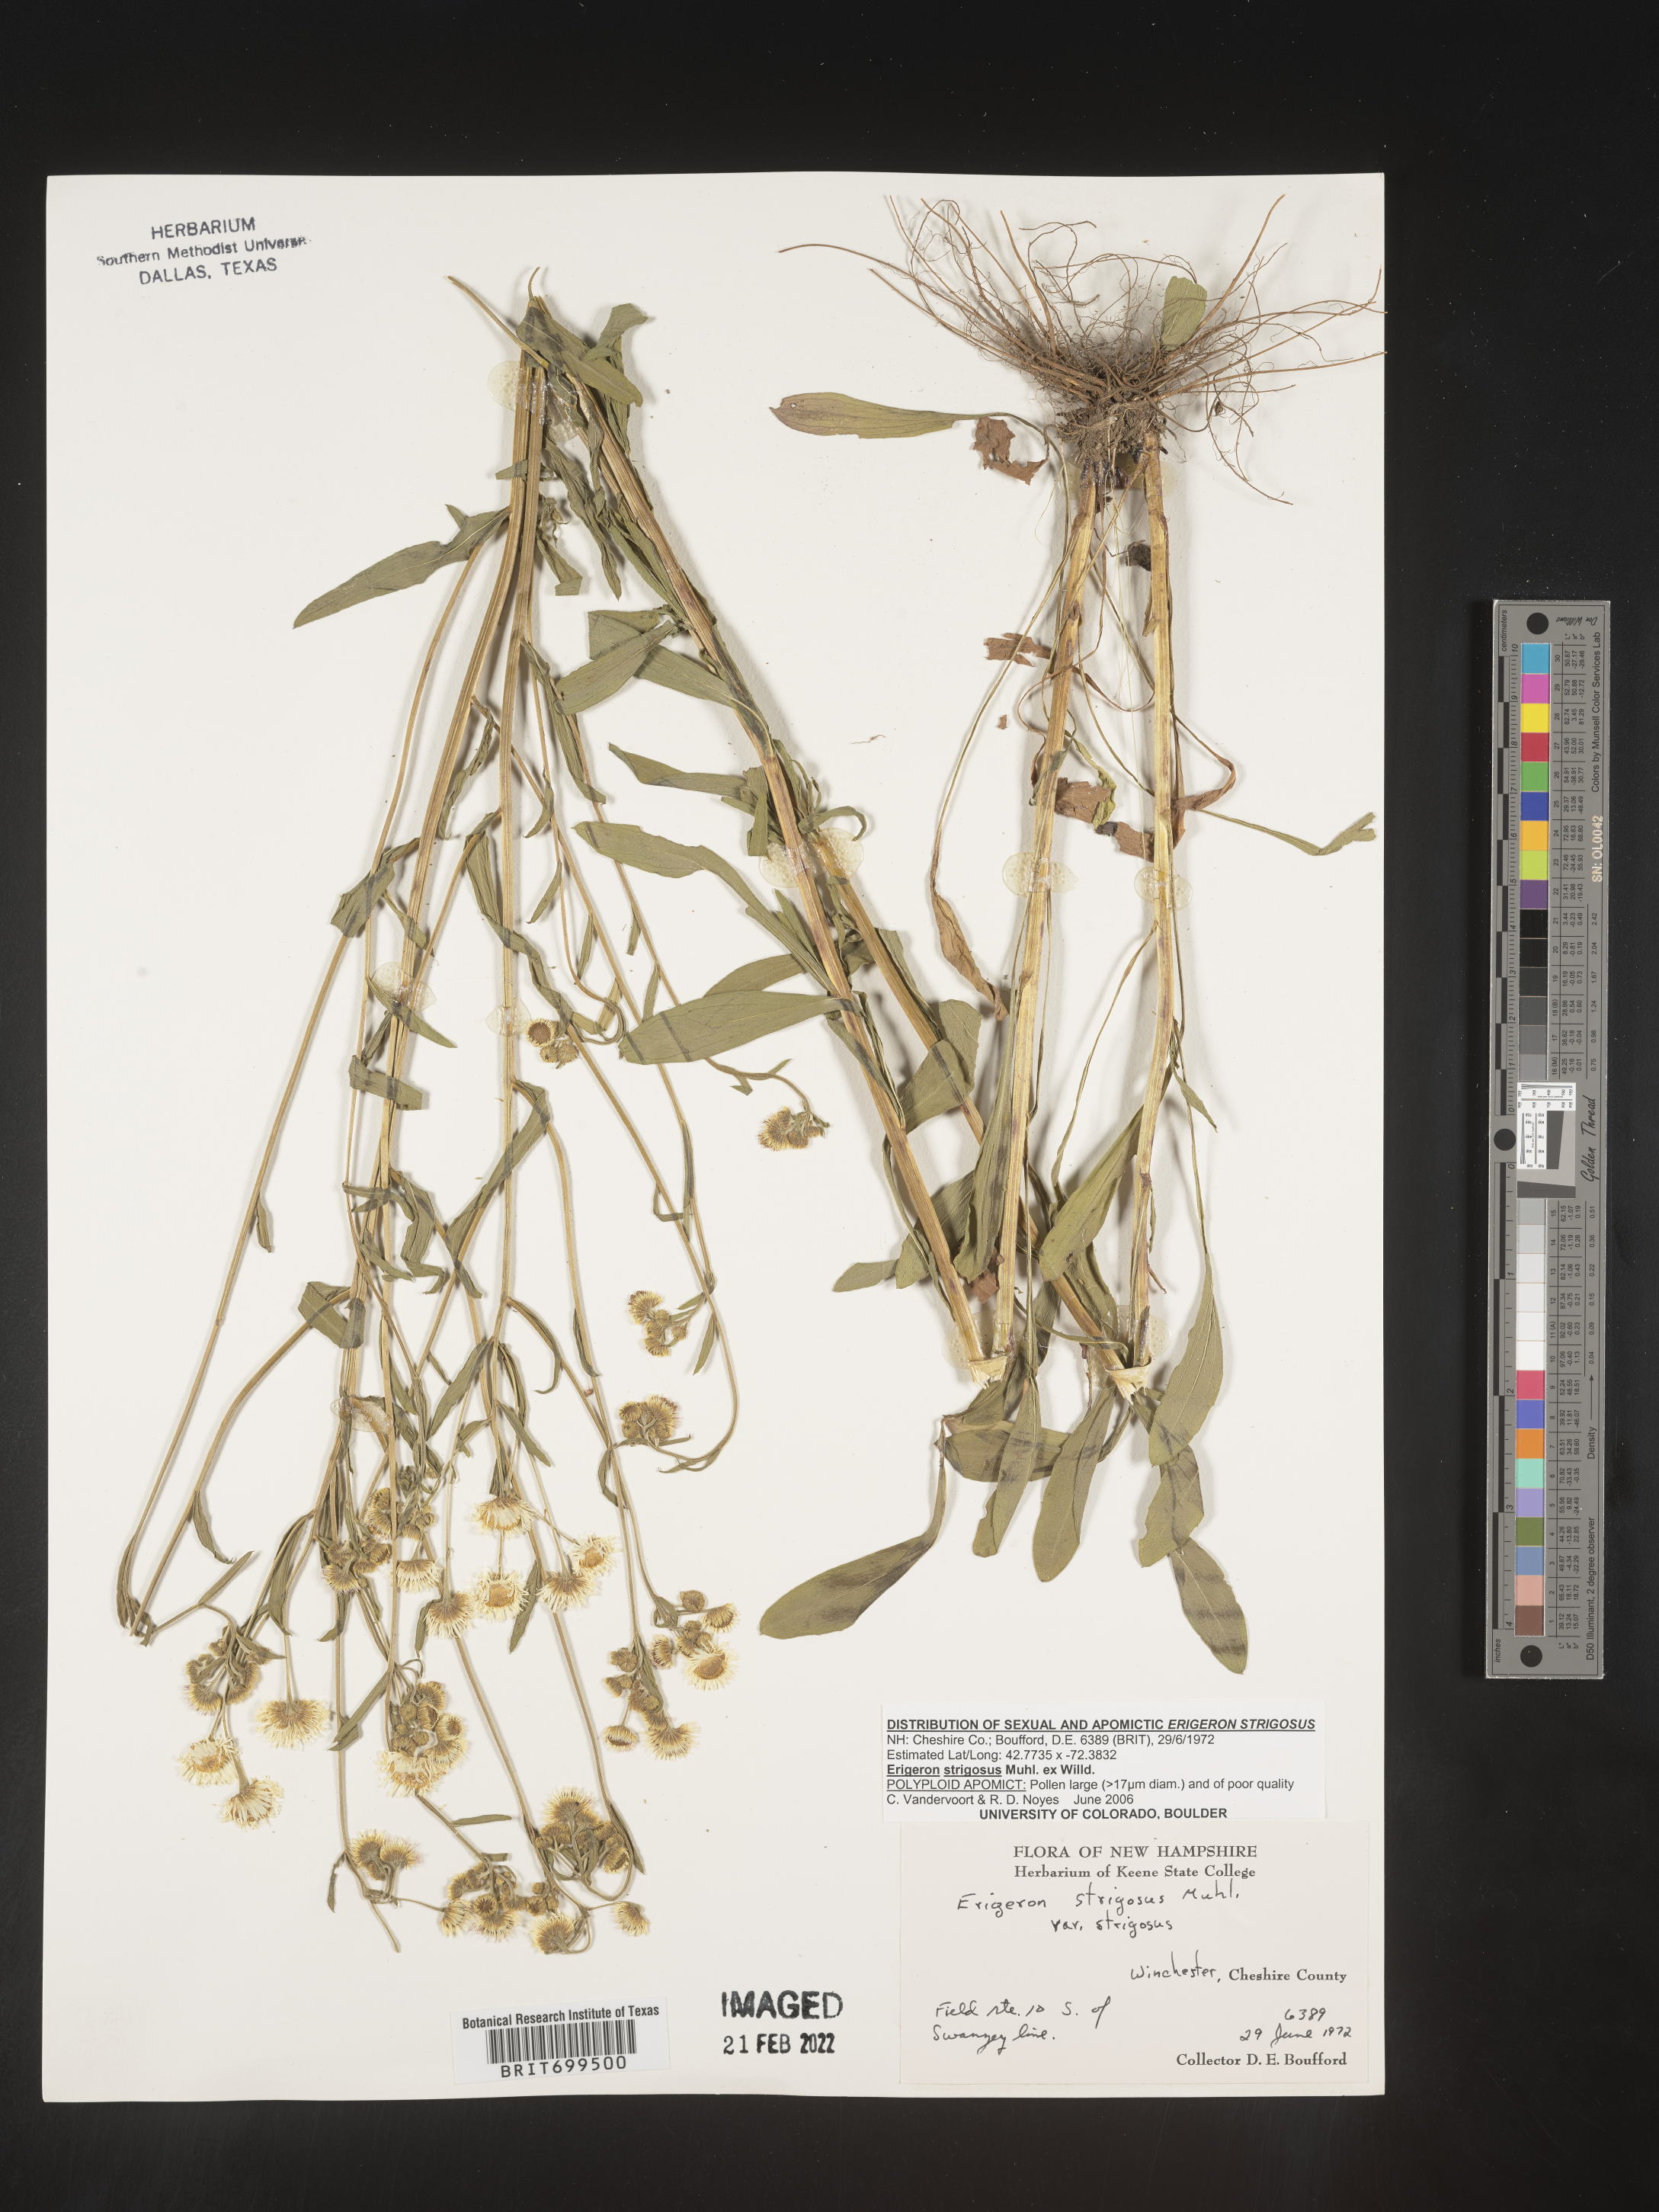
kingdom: Plantae
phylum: Tracheophyta
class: Magnoliopsida
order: Asterales
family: Asteraceae
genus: Erigeron
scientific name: Erigeron strigosus
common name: Common eastern fleabane
